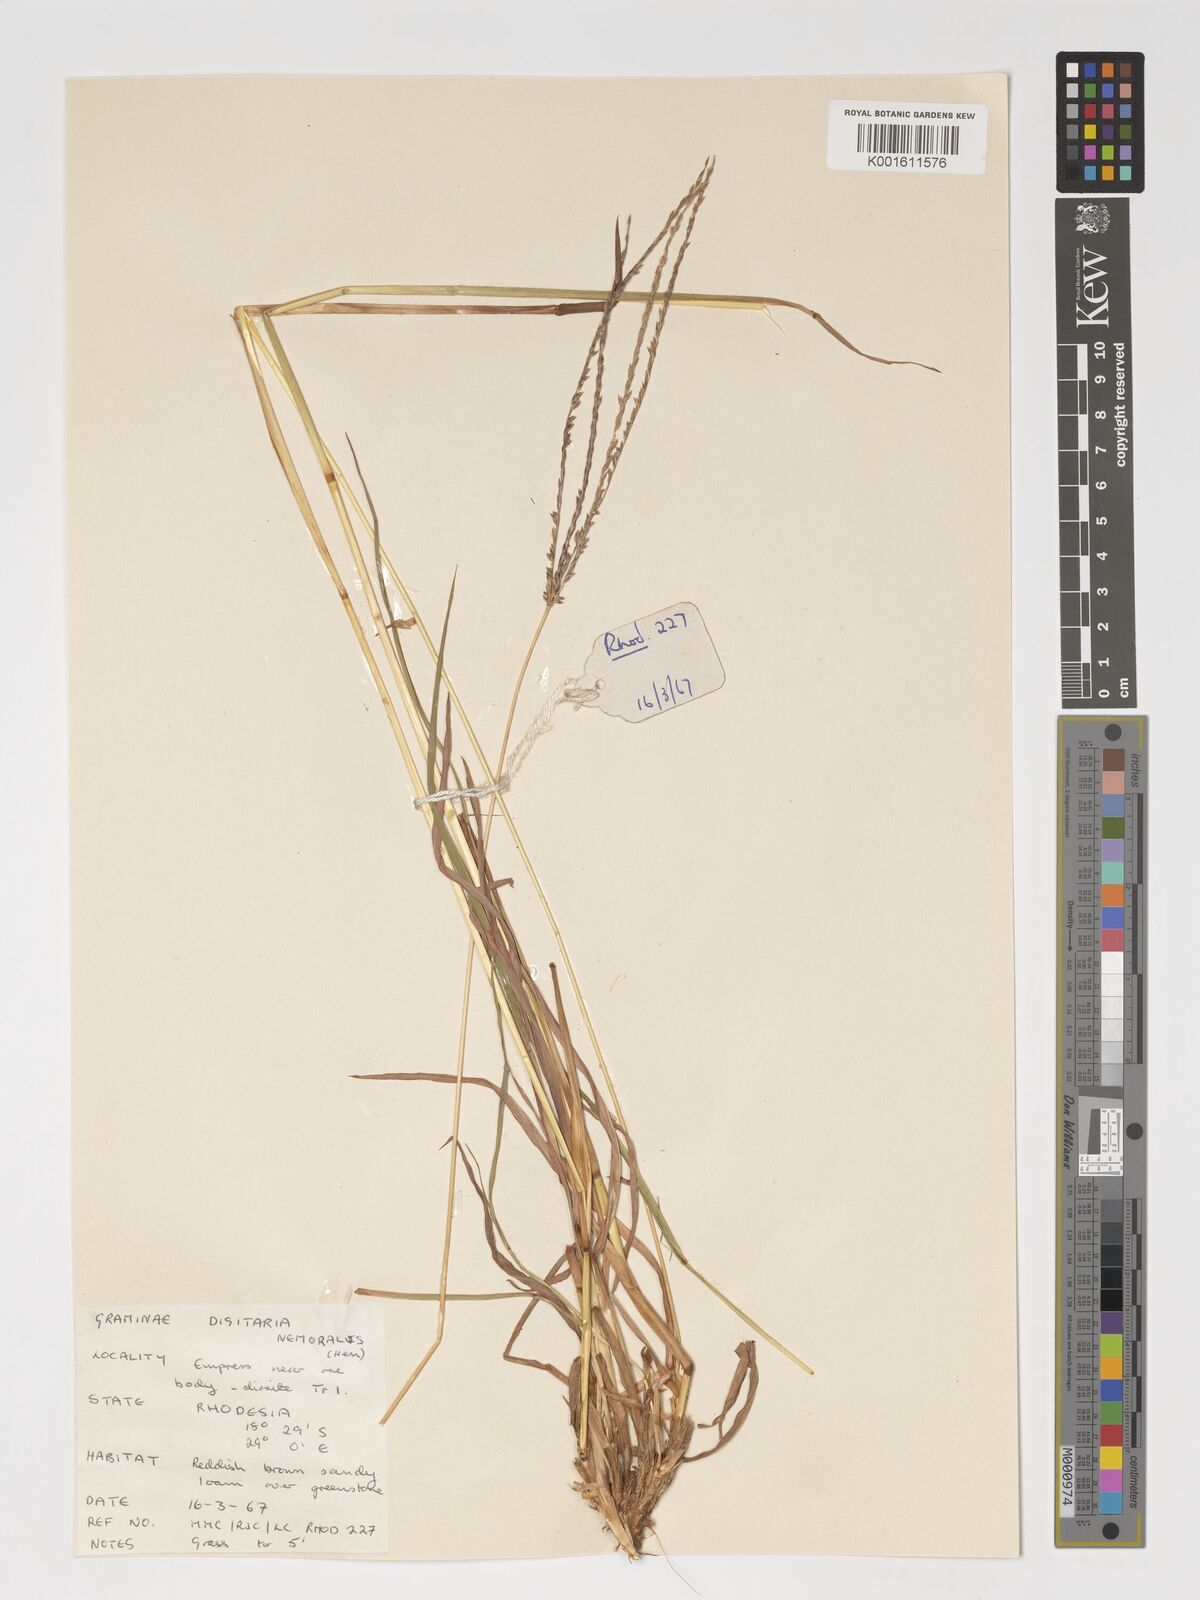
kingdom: Plantae
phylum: Tracheophyta
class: Liliopsida
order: Poales
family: Poaceae
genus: Digitaria
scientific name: Digitaria eriantha
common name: Digitgrass
